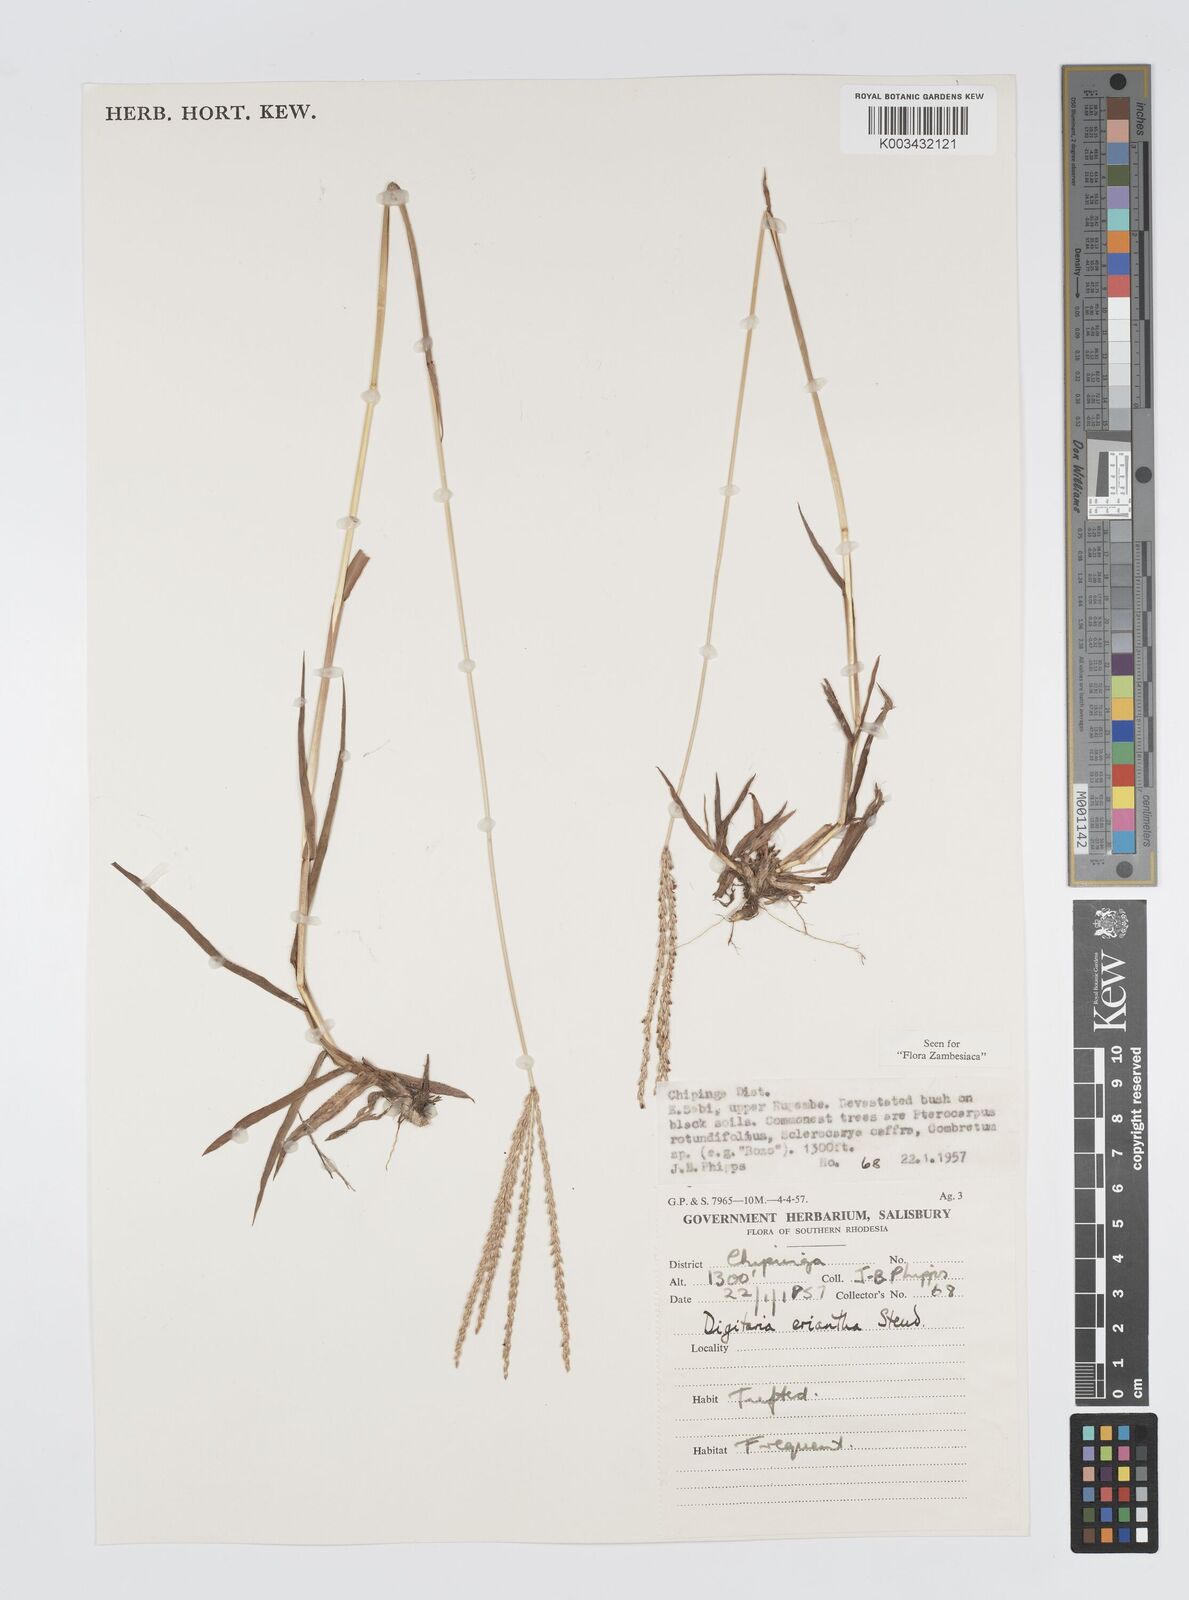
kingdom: Plantae
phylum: Tracheophyta
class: Liliopsida
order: Poales
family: Poaceae
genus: Digitaria
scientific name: Digitaria milanjiana
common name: Madagascar crabgrass
